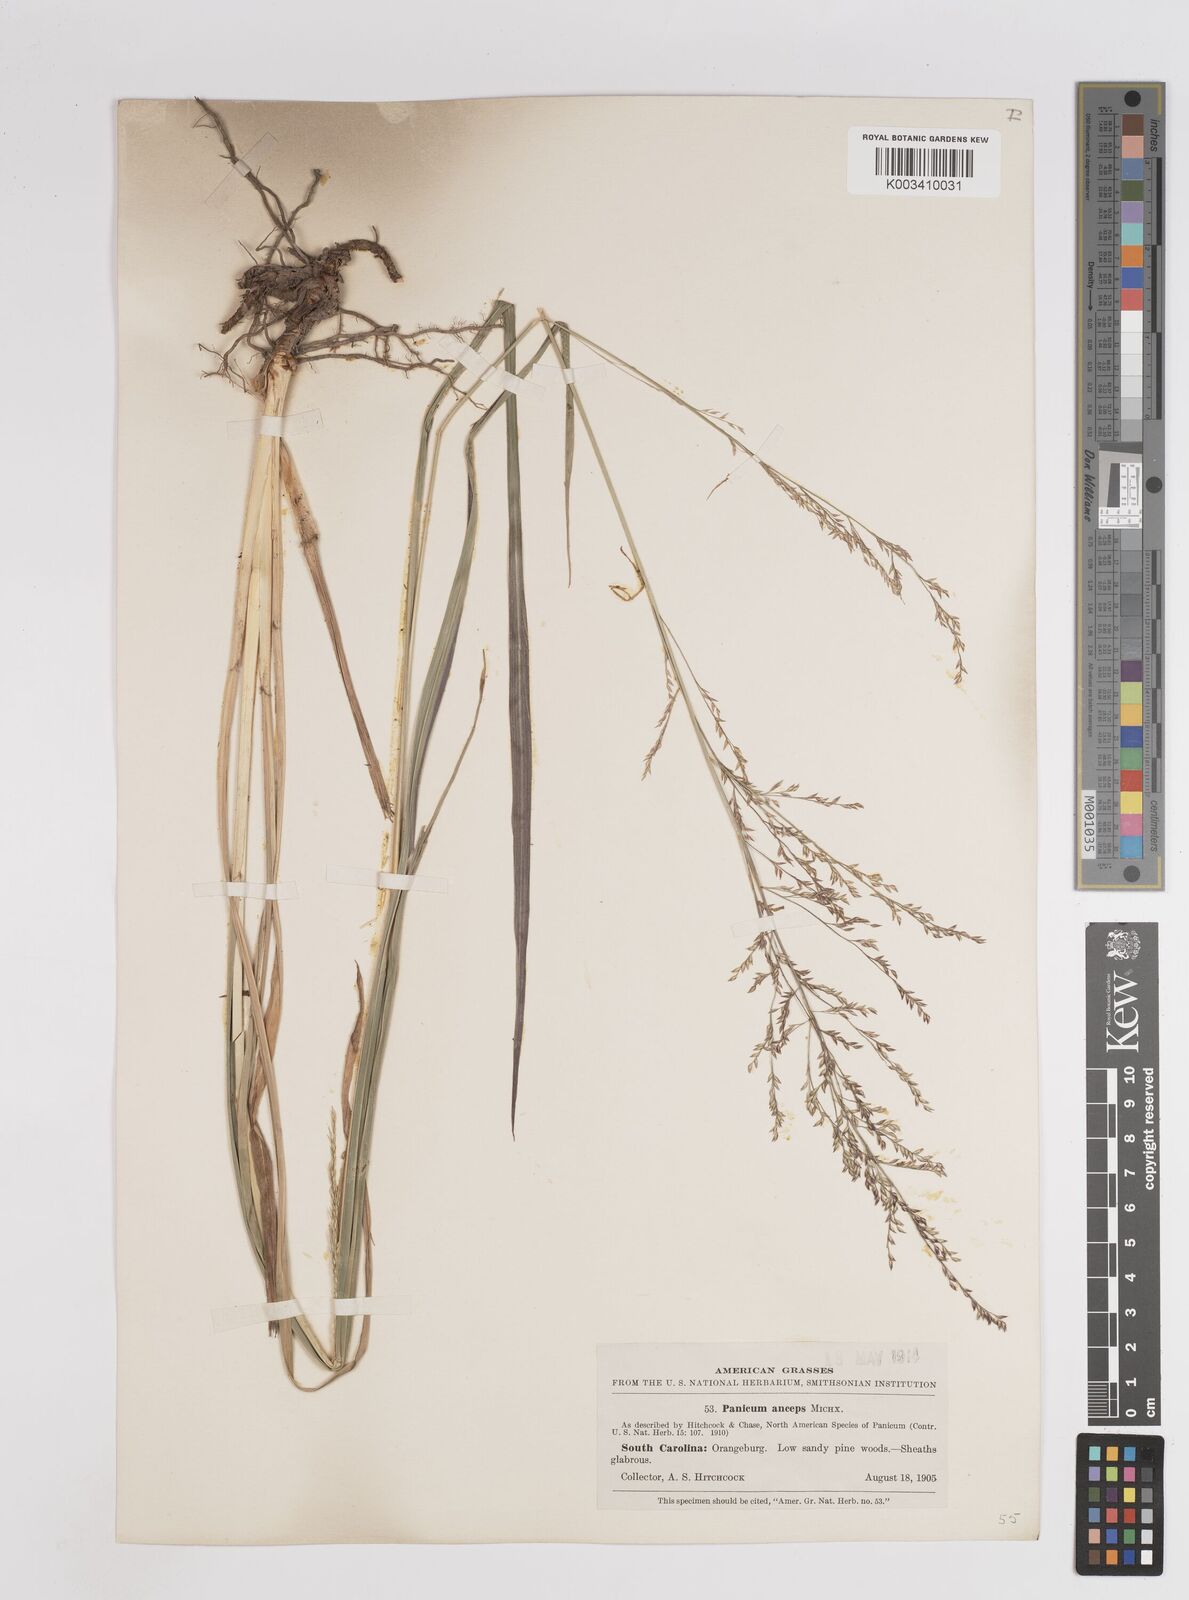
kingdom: Plantae
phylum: Tracheophyta
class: Liliopsida
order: Poales
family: Poaceae
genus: Coleataenia
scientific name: Coleataenia anceps
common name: Beaked panic grass
